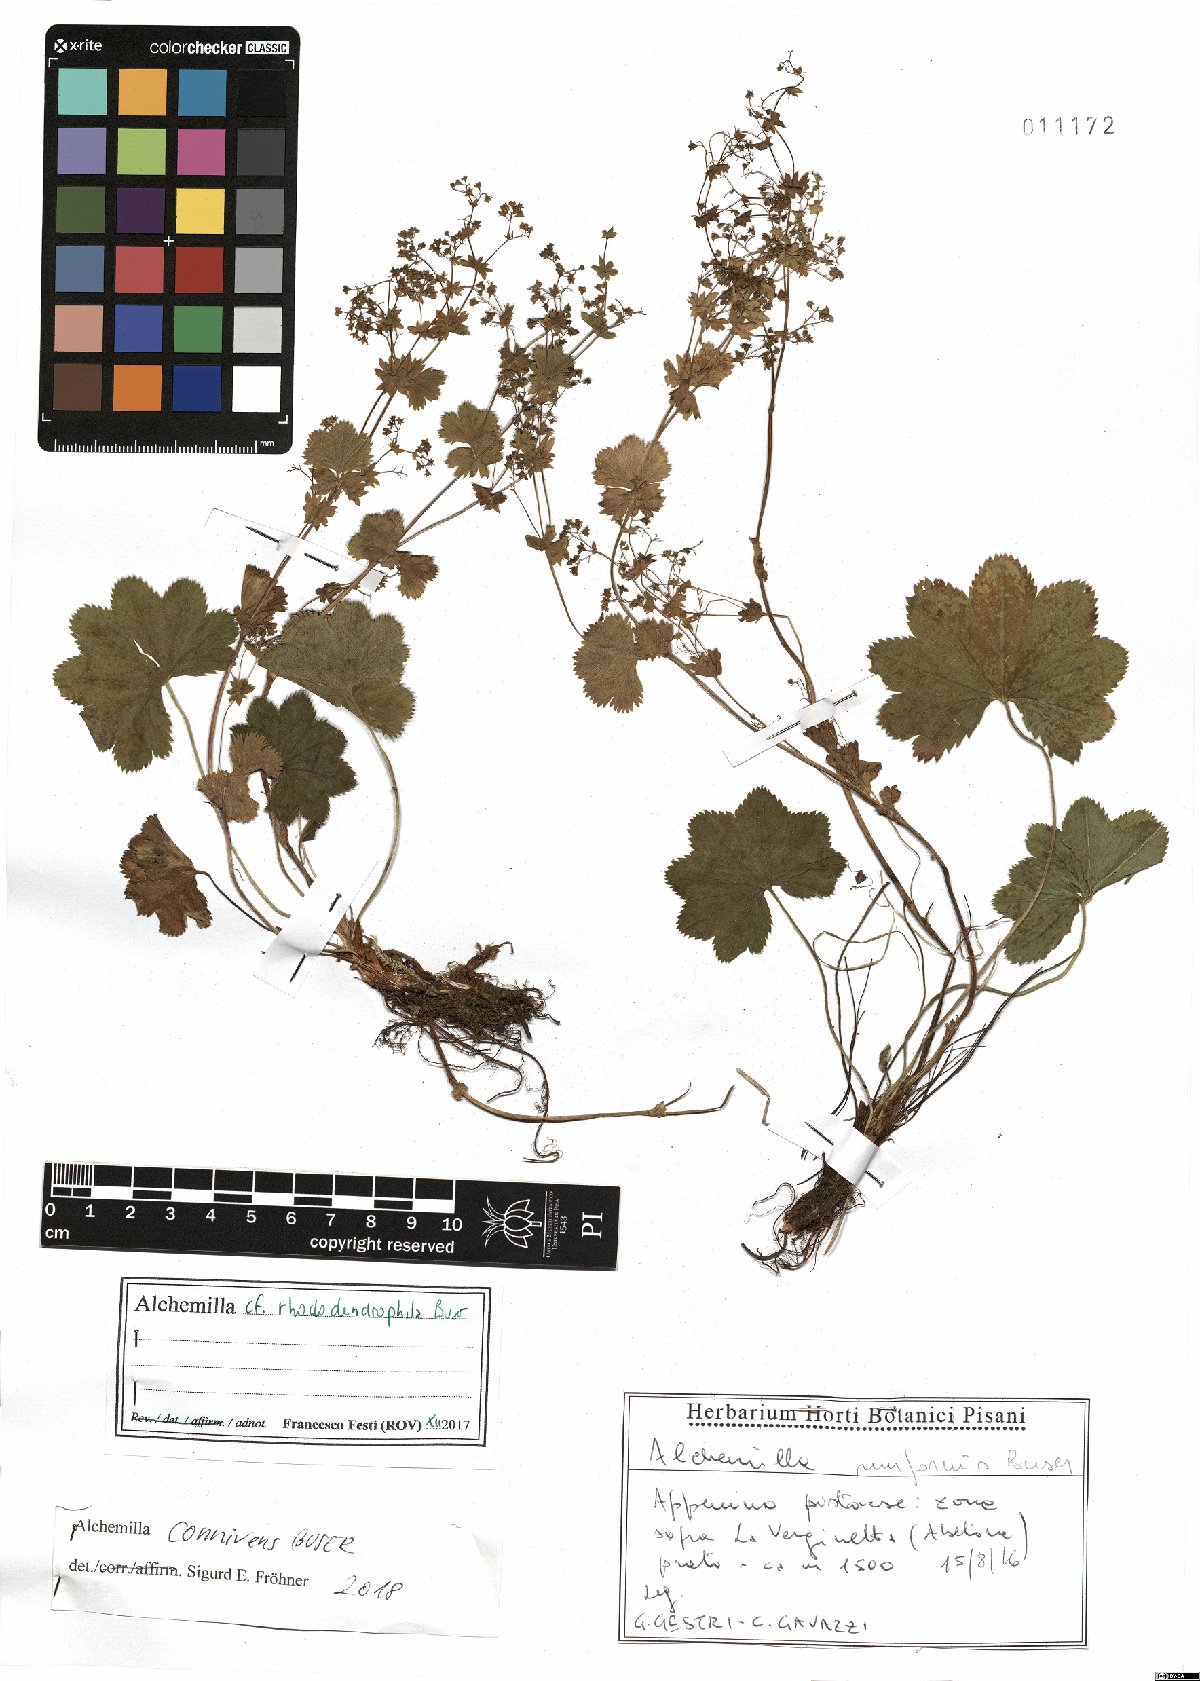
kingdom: Plantae
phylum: Tracheophyta
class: Magnoliopsida
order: Rosales
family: Rosaceae
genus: Alchemilla
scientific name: Alchemilla connivens
